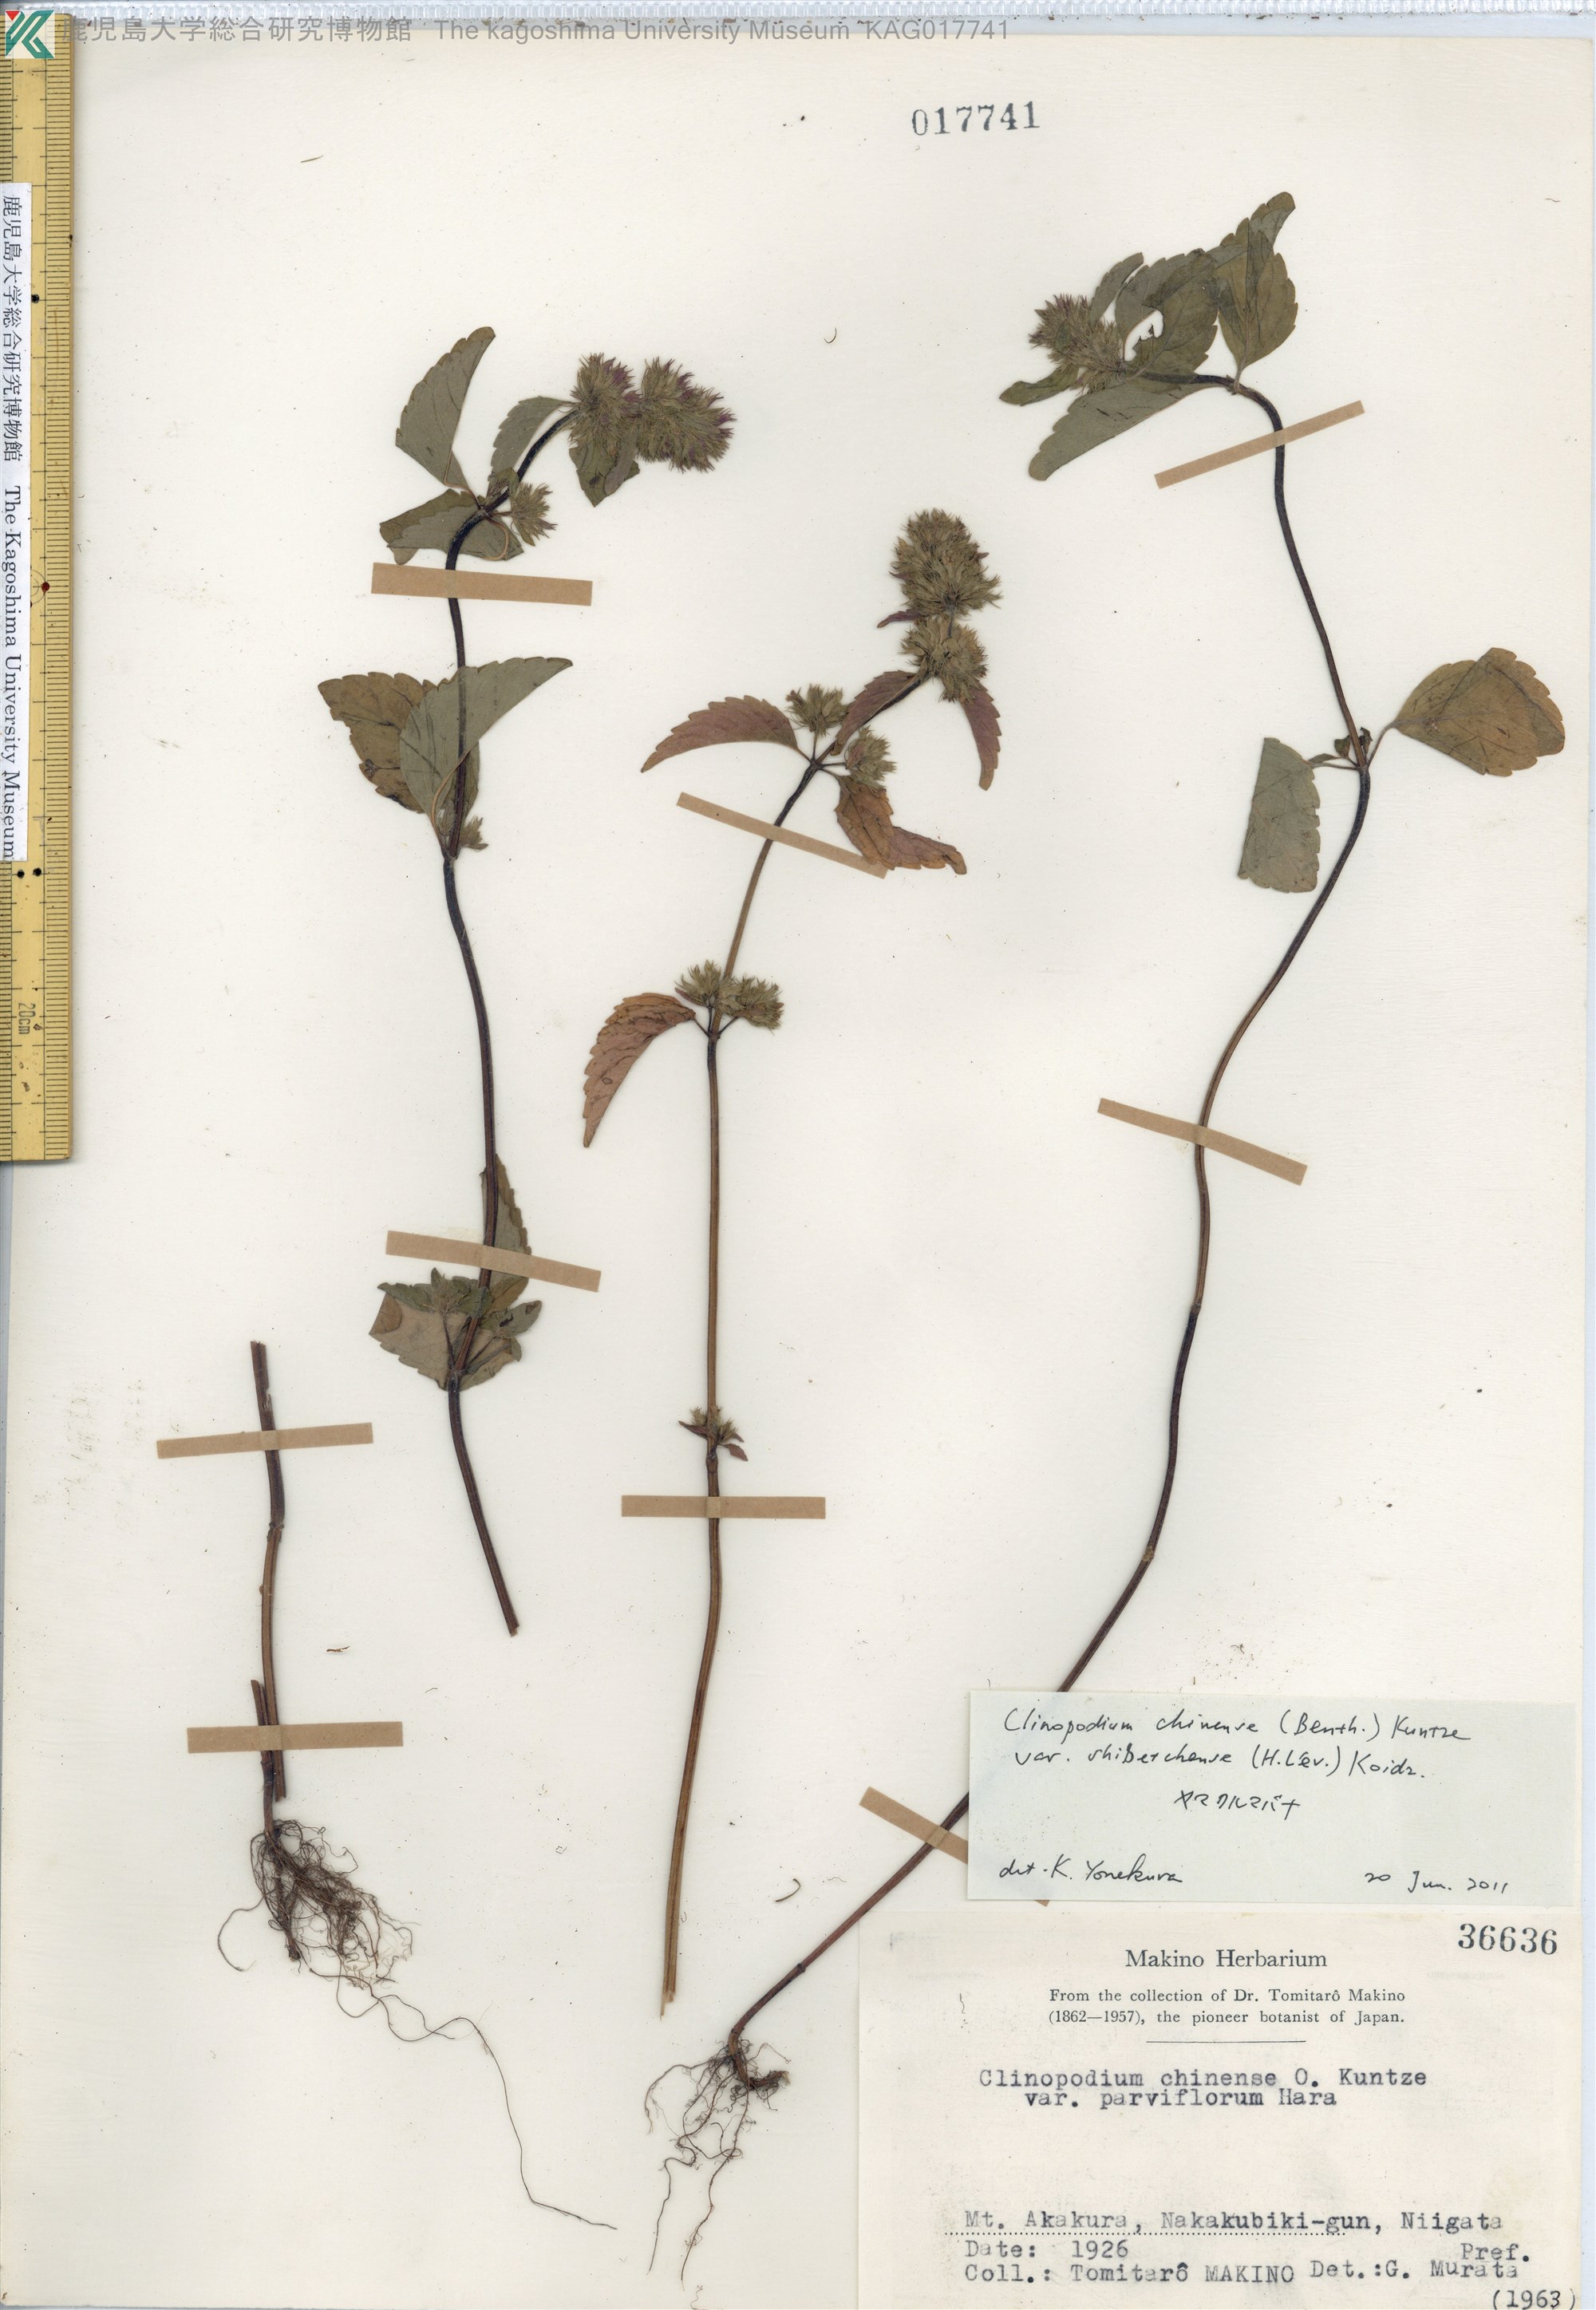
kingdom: Plantae
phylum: Tracheophyta
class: Magnoliopsida
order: Lamiales
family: Lamiaceae
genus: Clinopodium
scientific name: Clinopodium multicaule
